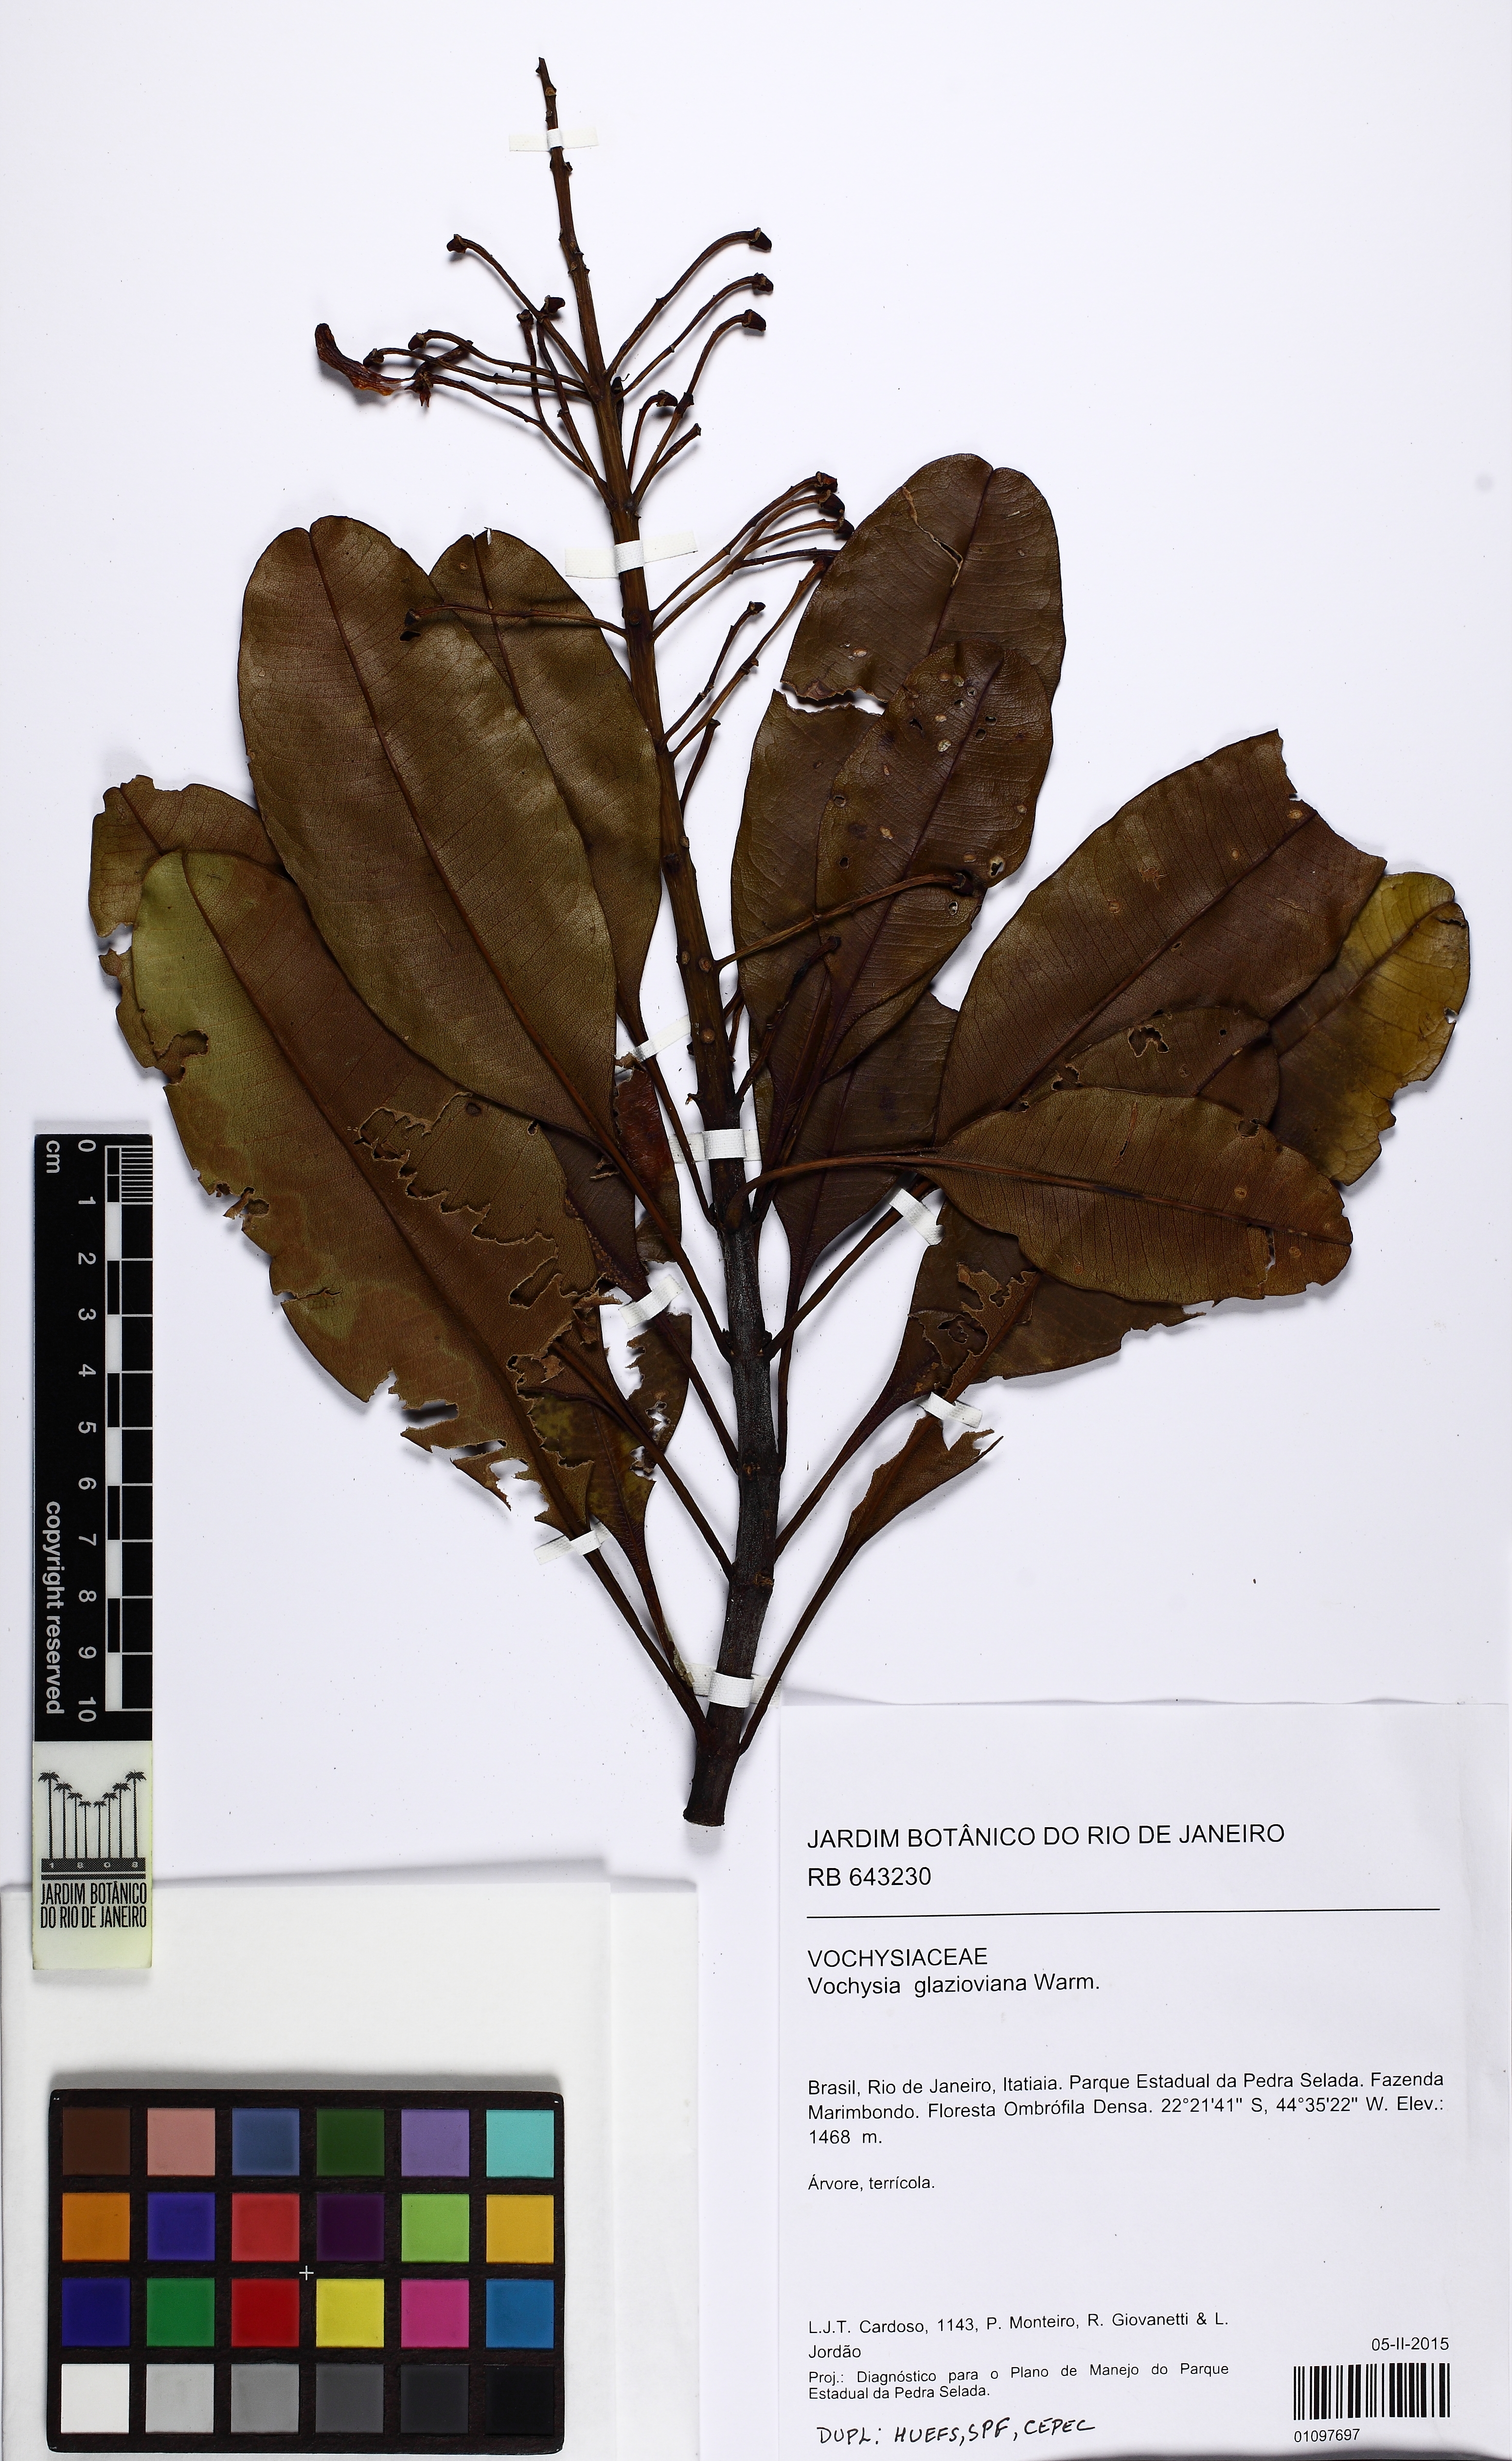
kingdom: Plantae
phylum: Tracheophyta
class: Magnoliopsida
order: Myrtales
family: Vochysiaceae
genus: Vochysia
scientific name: Vochysia glazioviana
